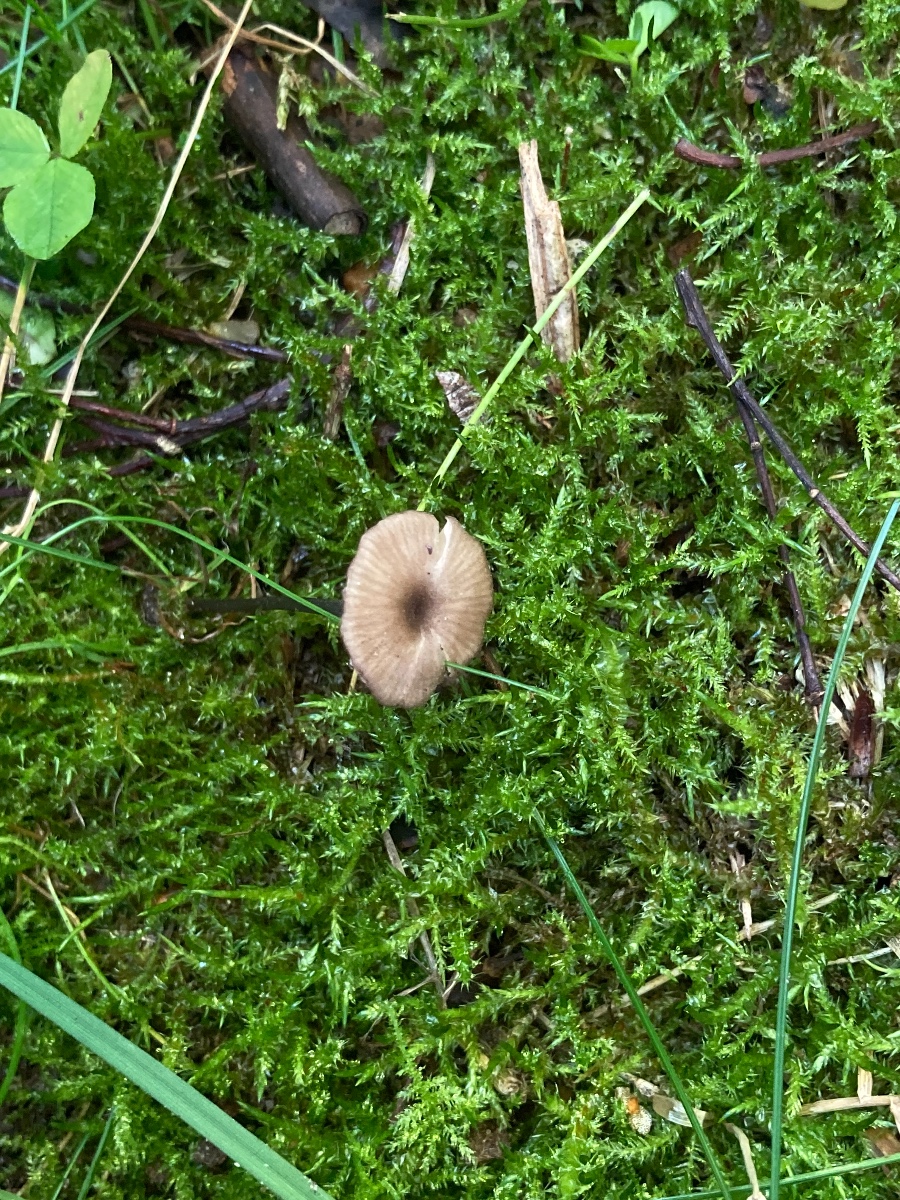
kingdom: Fungi
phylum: Basidiomycota
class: Agaricomycetes
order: Agaricales
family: Entolomataceae
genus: Entoloma
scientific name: Entoloma incarnatofuscescens
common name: tragt-rødblad
